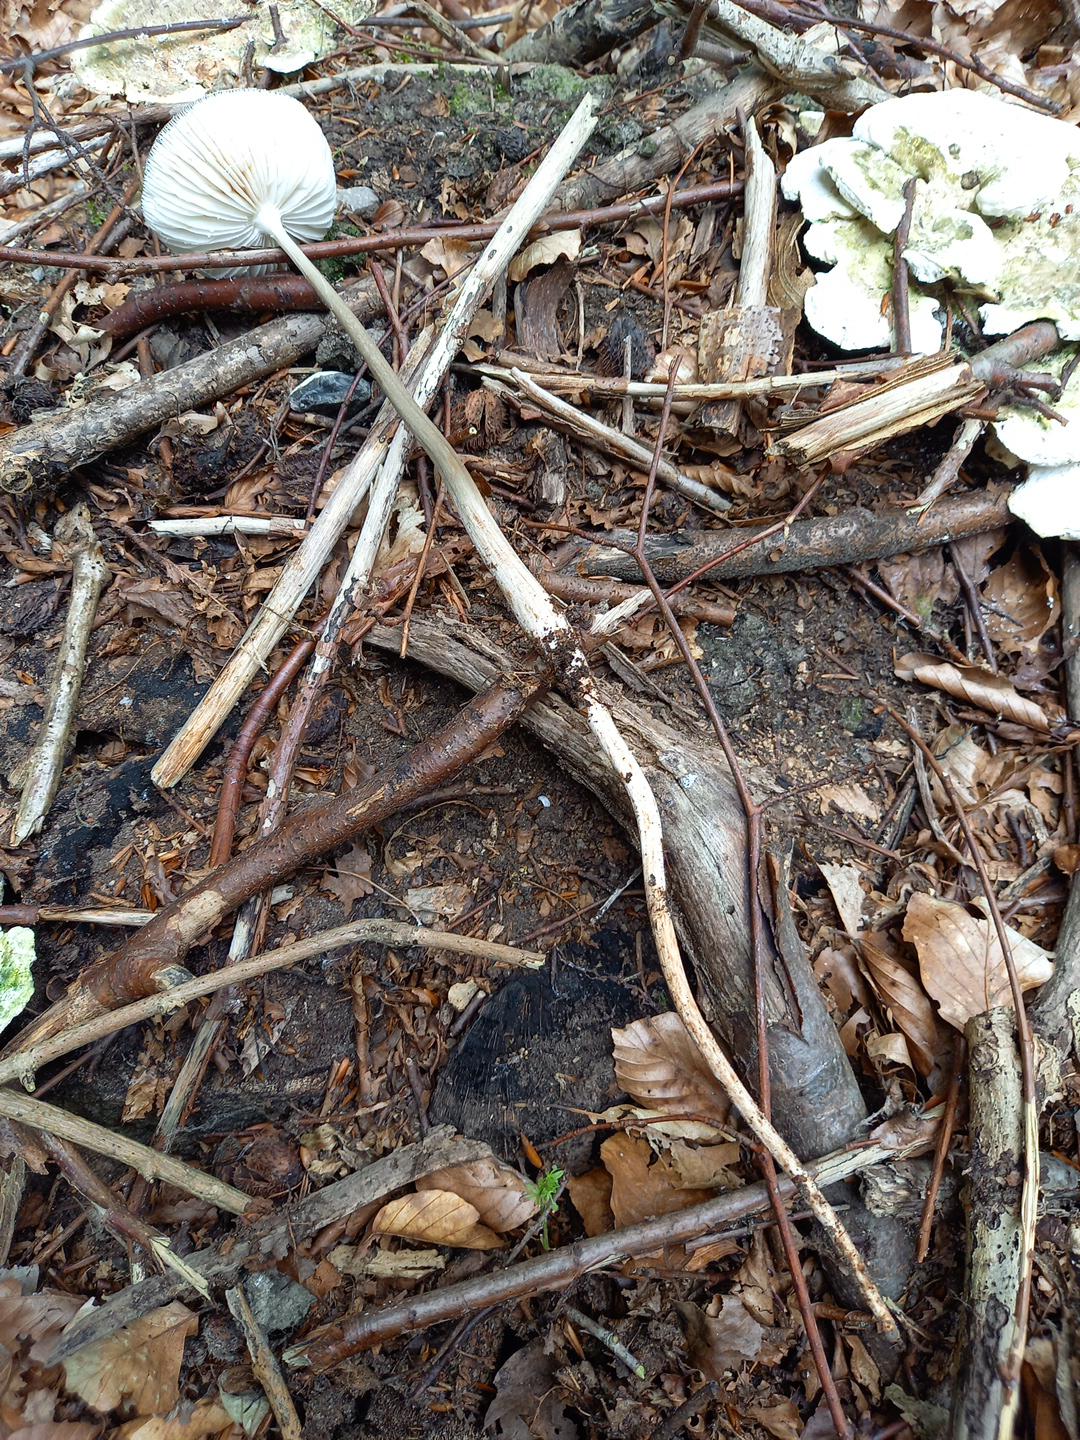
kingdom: Fungi
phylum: Basidiomycota
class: Agaricomycetes
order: Agaricales
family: Physalacriaceae
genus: Hymenopellis
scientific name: Hymenopellis radicata
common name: almindelig pælerodshat
